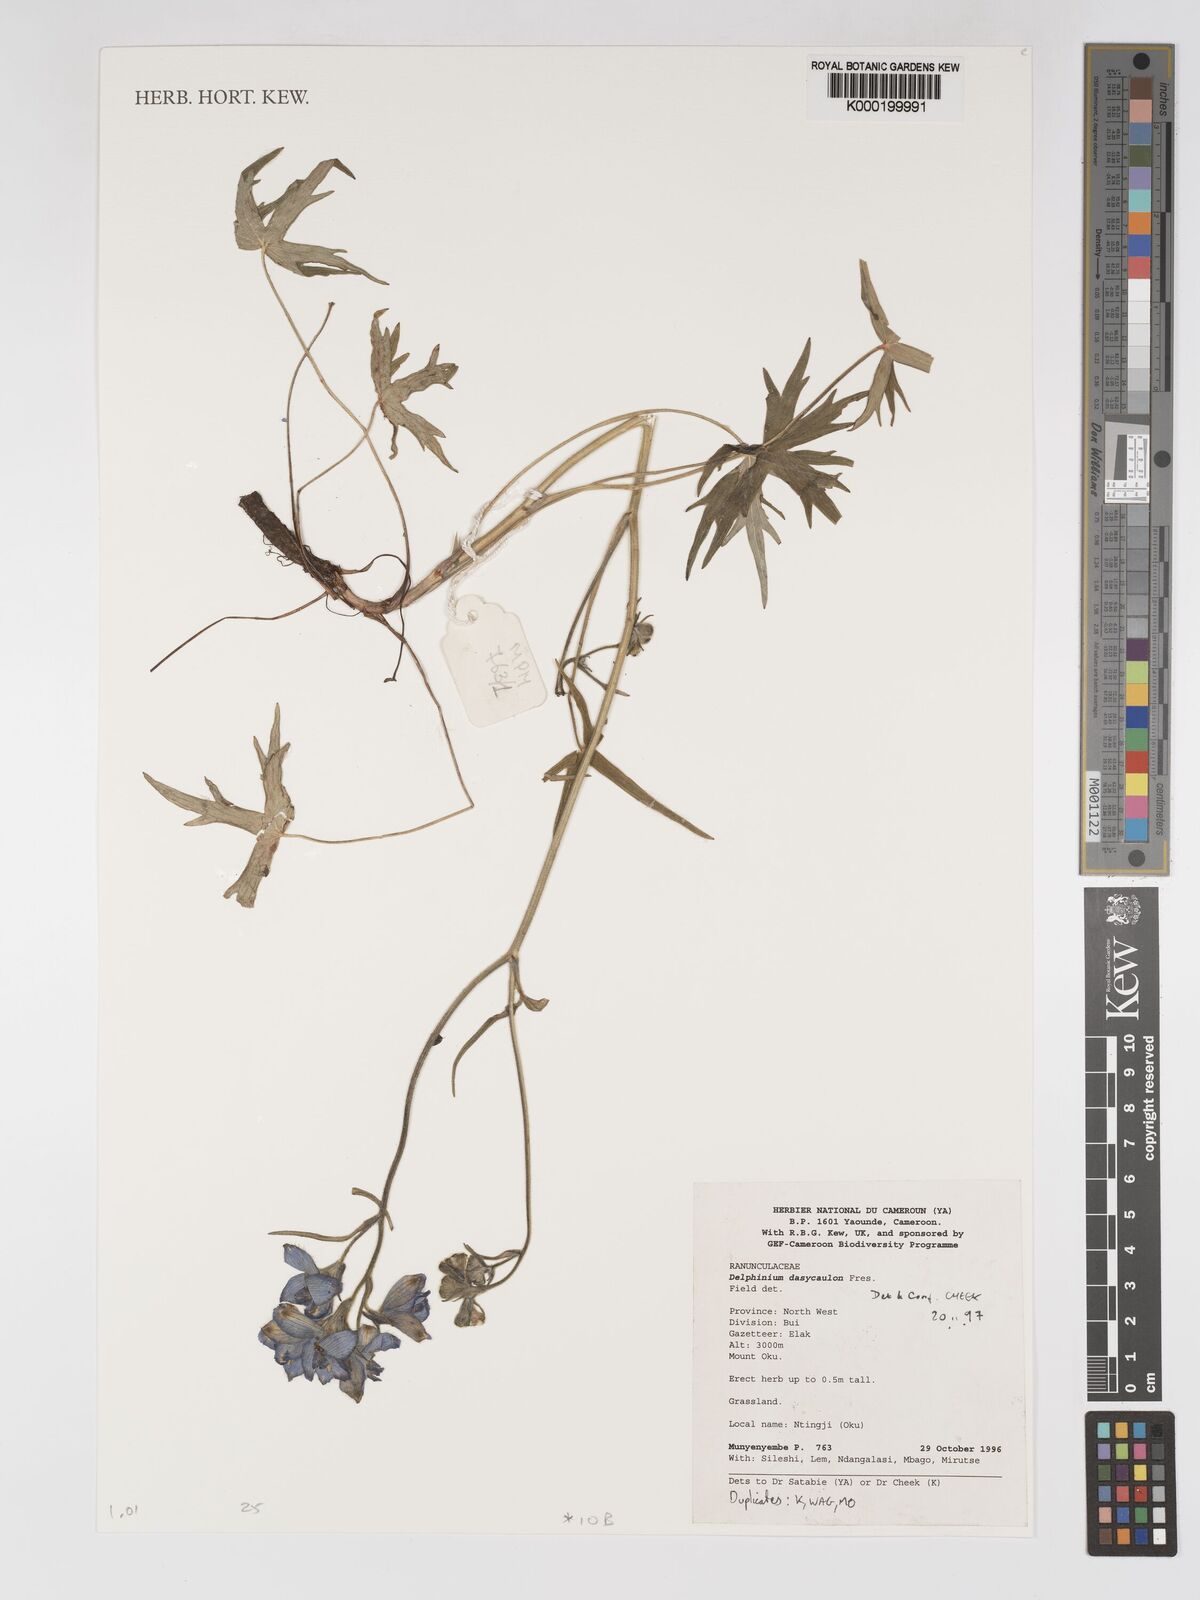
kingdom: Plantae
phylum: Tracheophyta
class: Magnoliopsida
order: Ranunculales
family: Ranunculaceae
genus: Delphinium
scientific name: Delphinium dasycaulon
